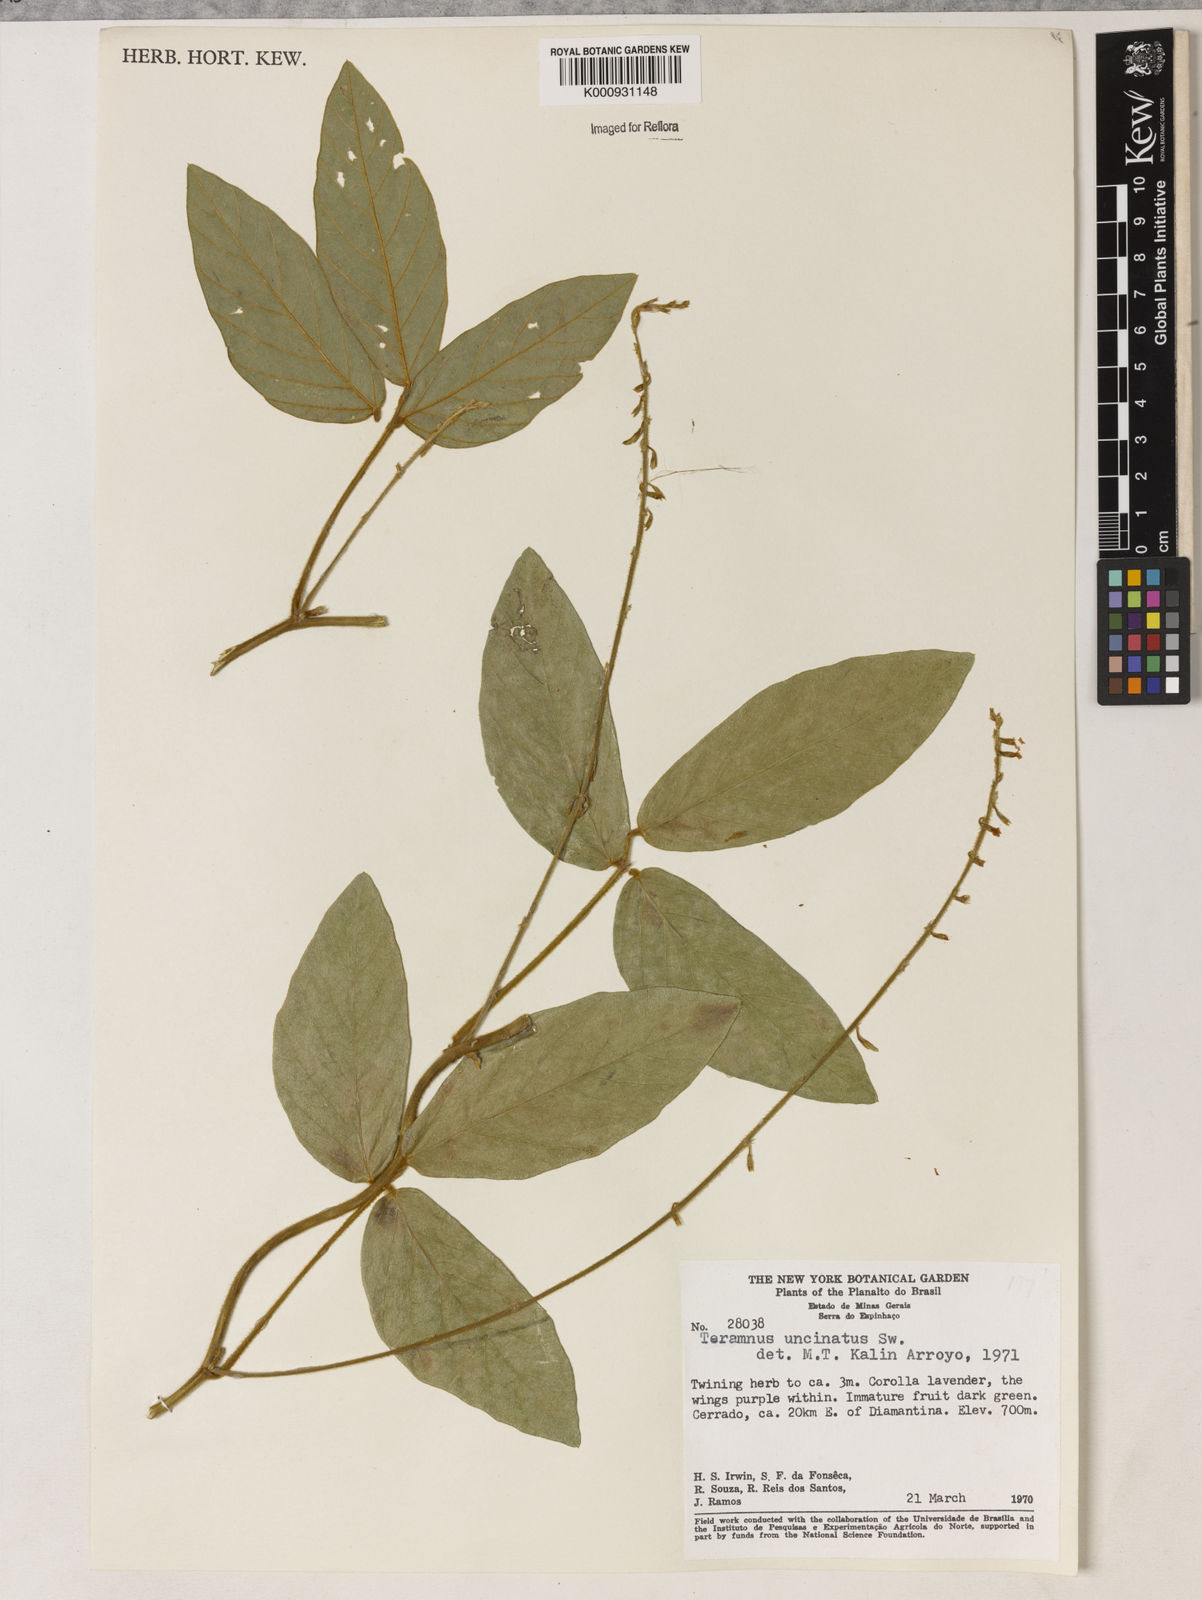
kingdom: Plantae
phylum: Tracheophyta
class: Magnoliopsida
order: Fabales
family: Fabaceae
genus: Teramnus
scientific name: Teramnus uncinatus
